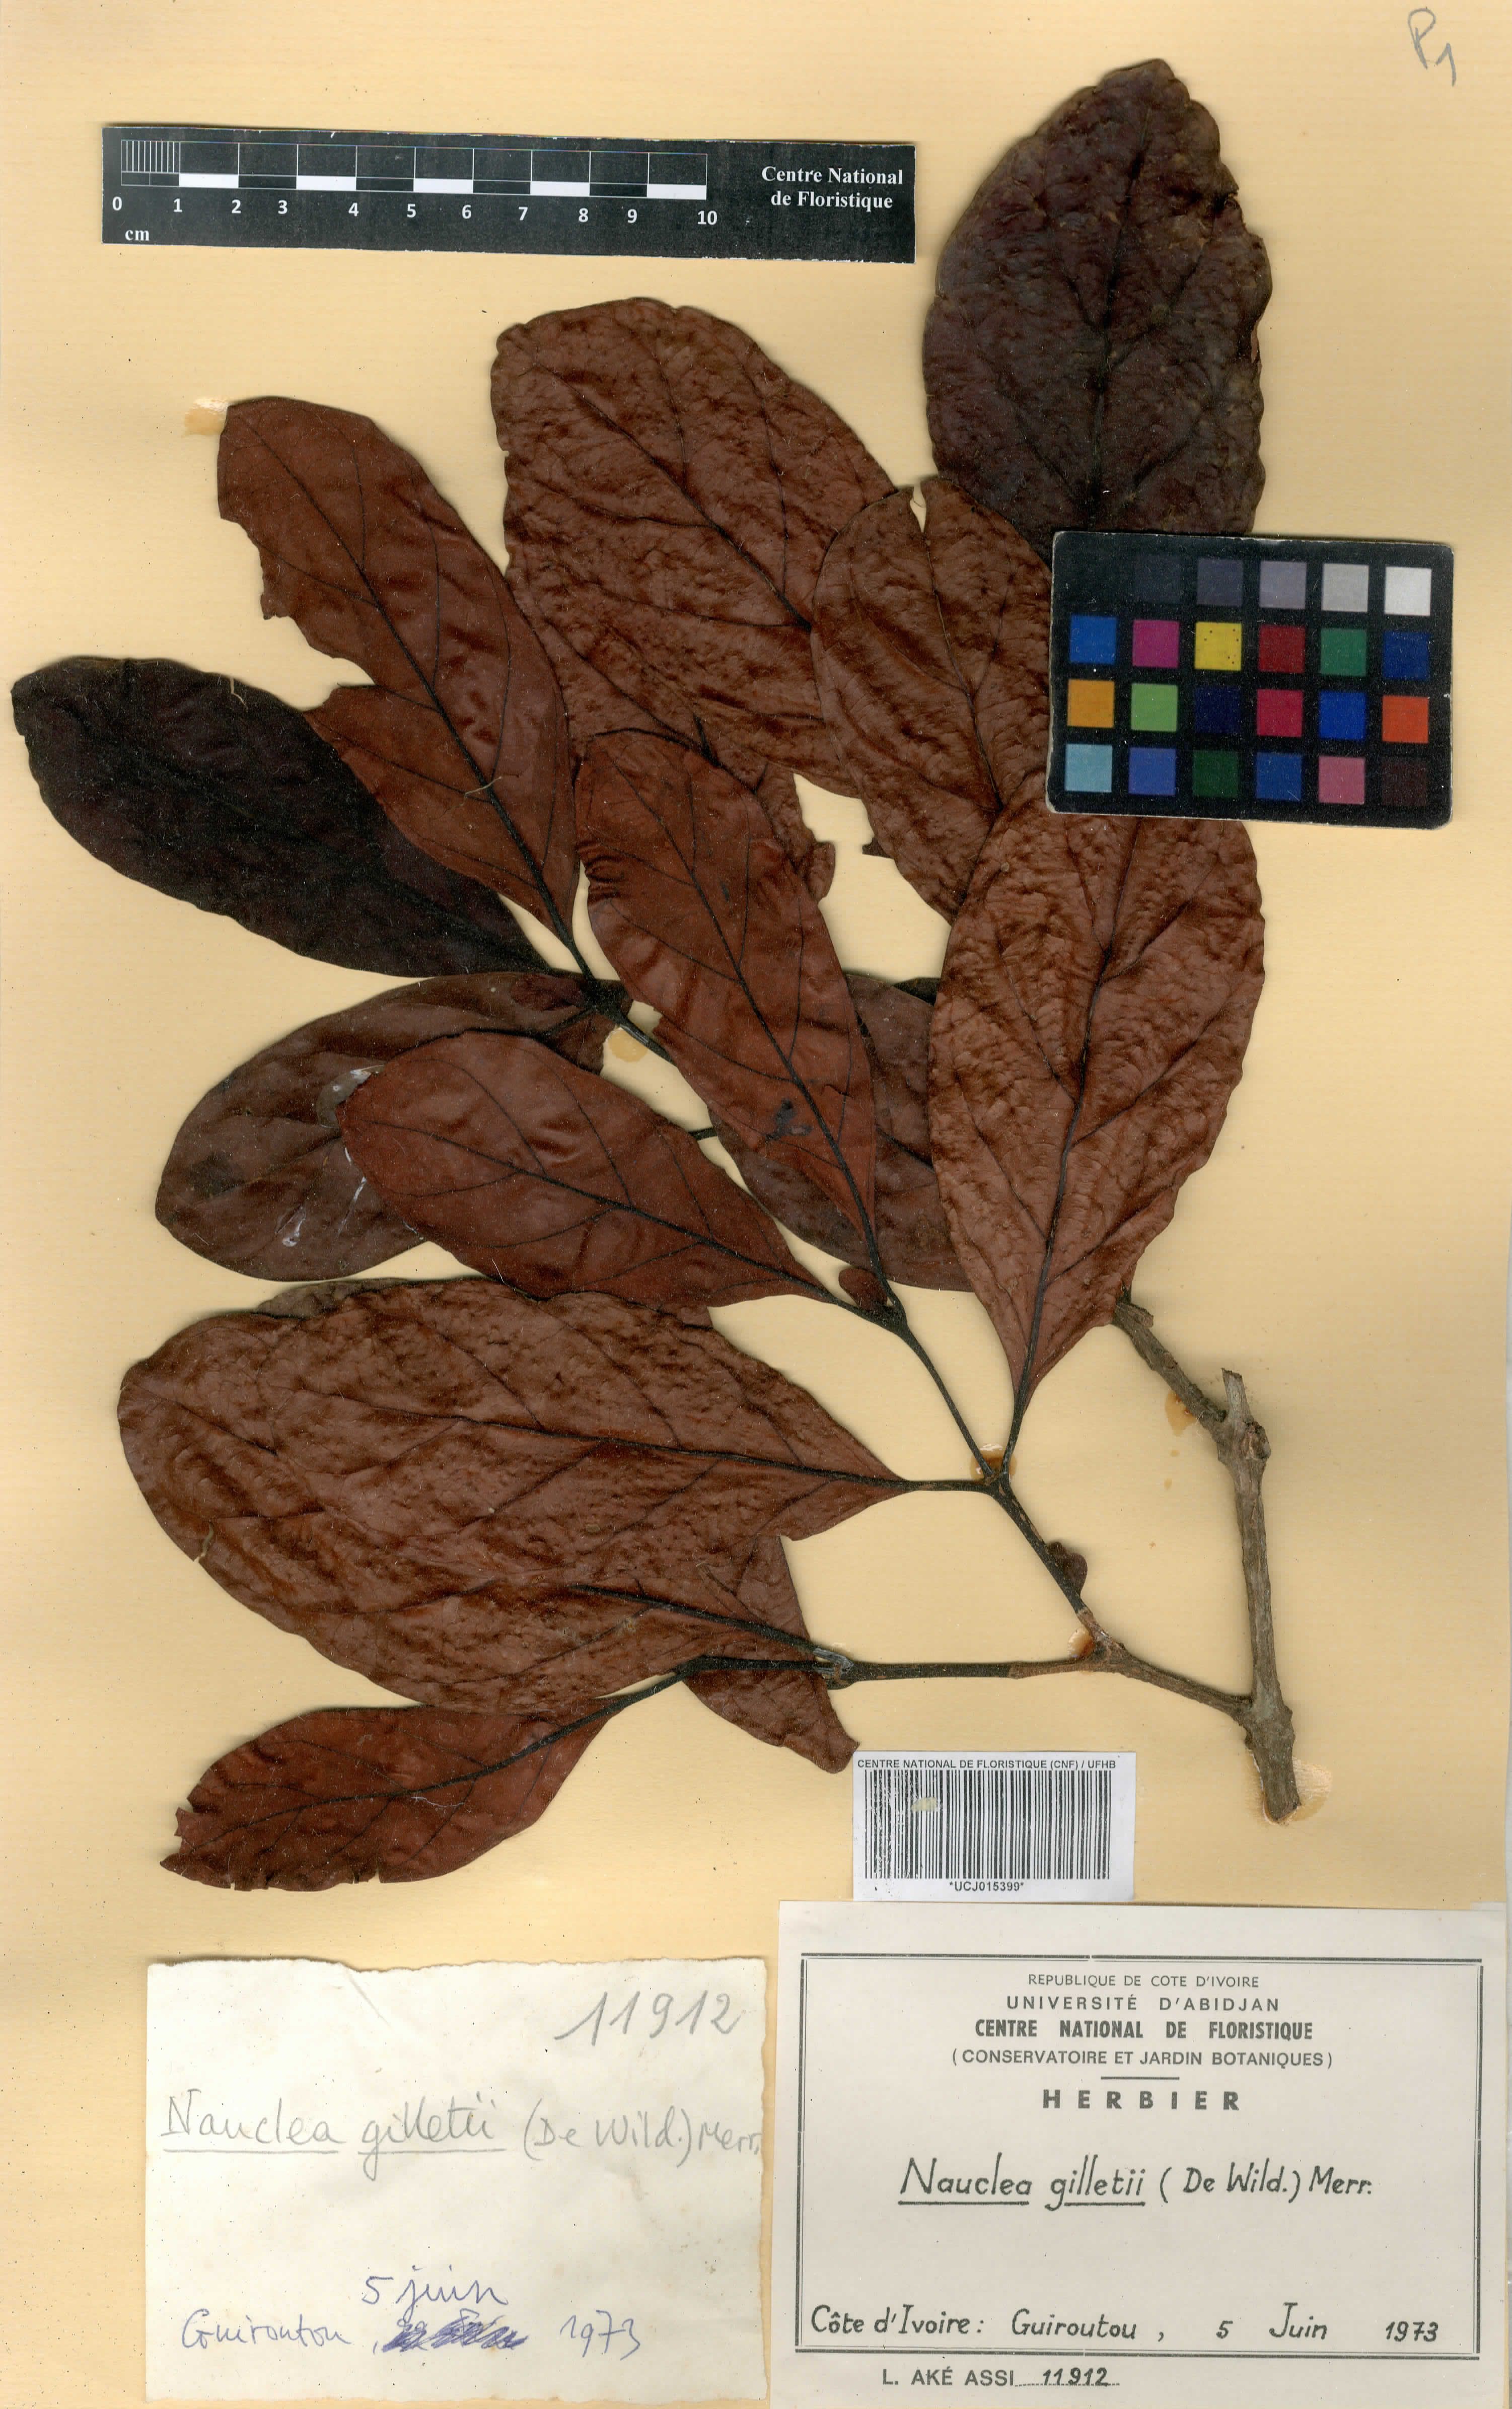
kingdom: Plantae
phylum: Tracheophyta
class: Magnoliopsida
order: Gentianales
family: Rubiaceae
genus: Nauclea
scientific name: Nauclea gilletii
